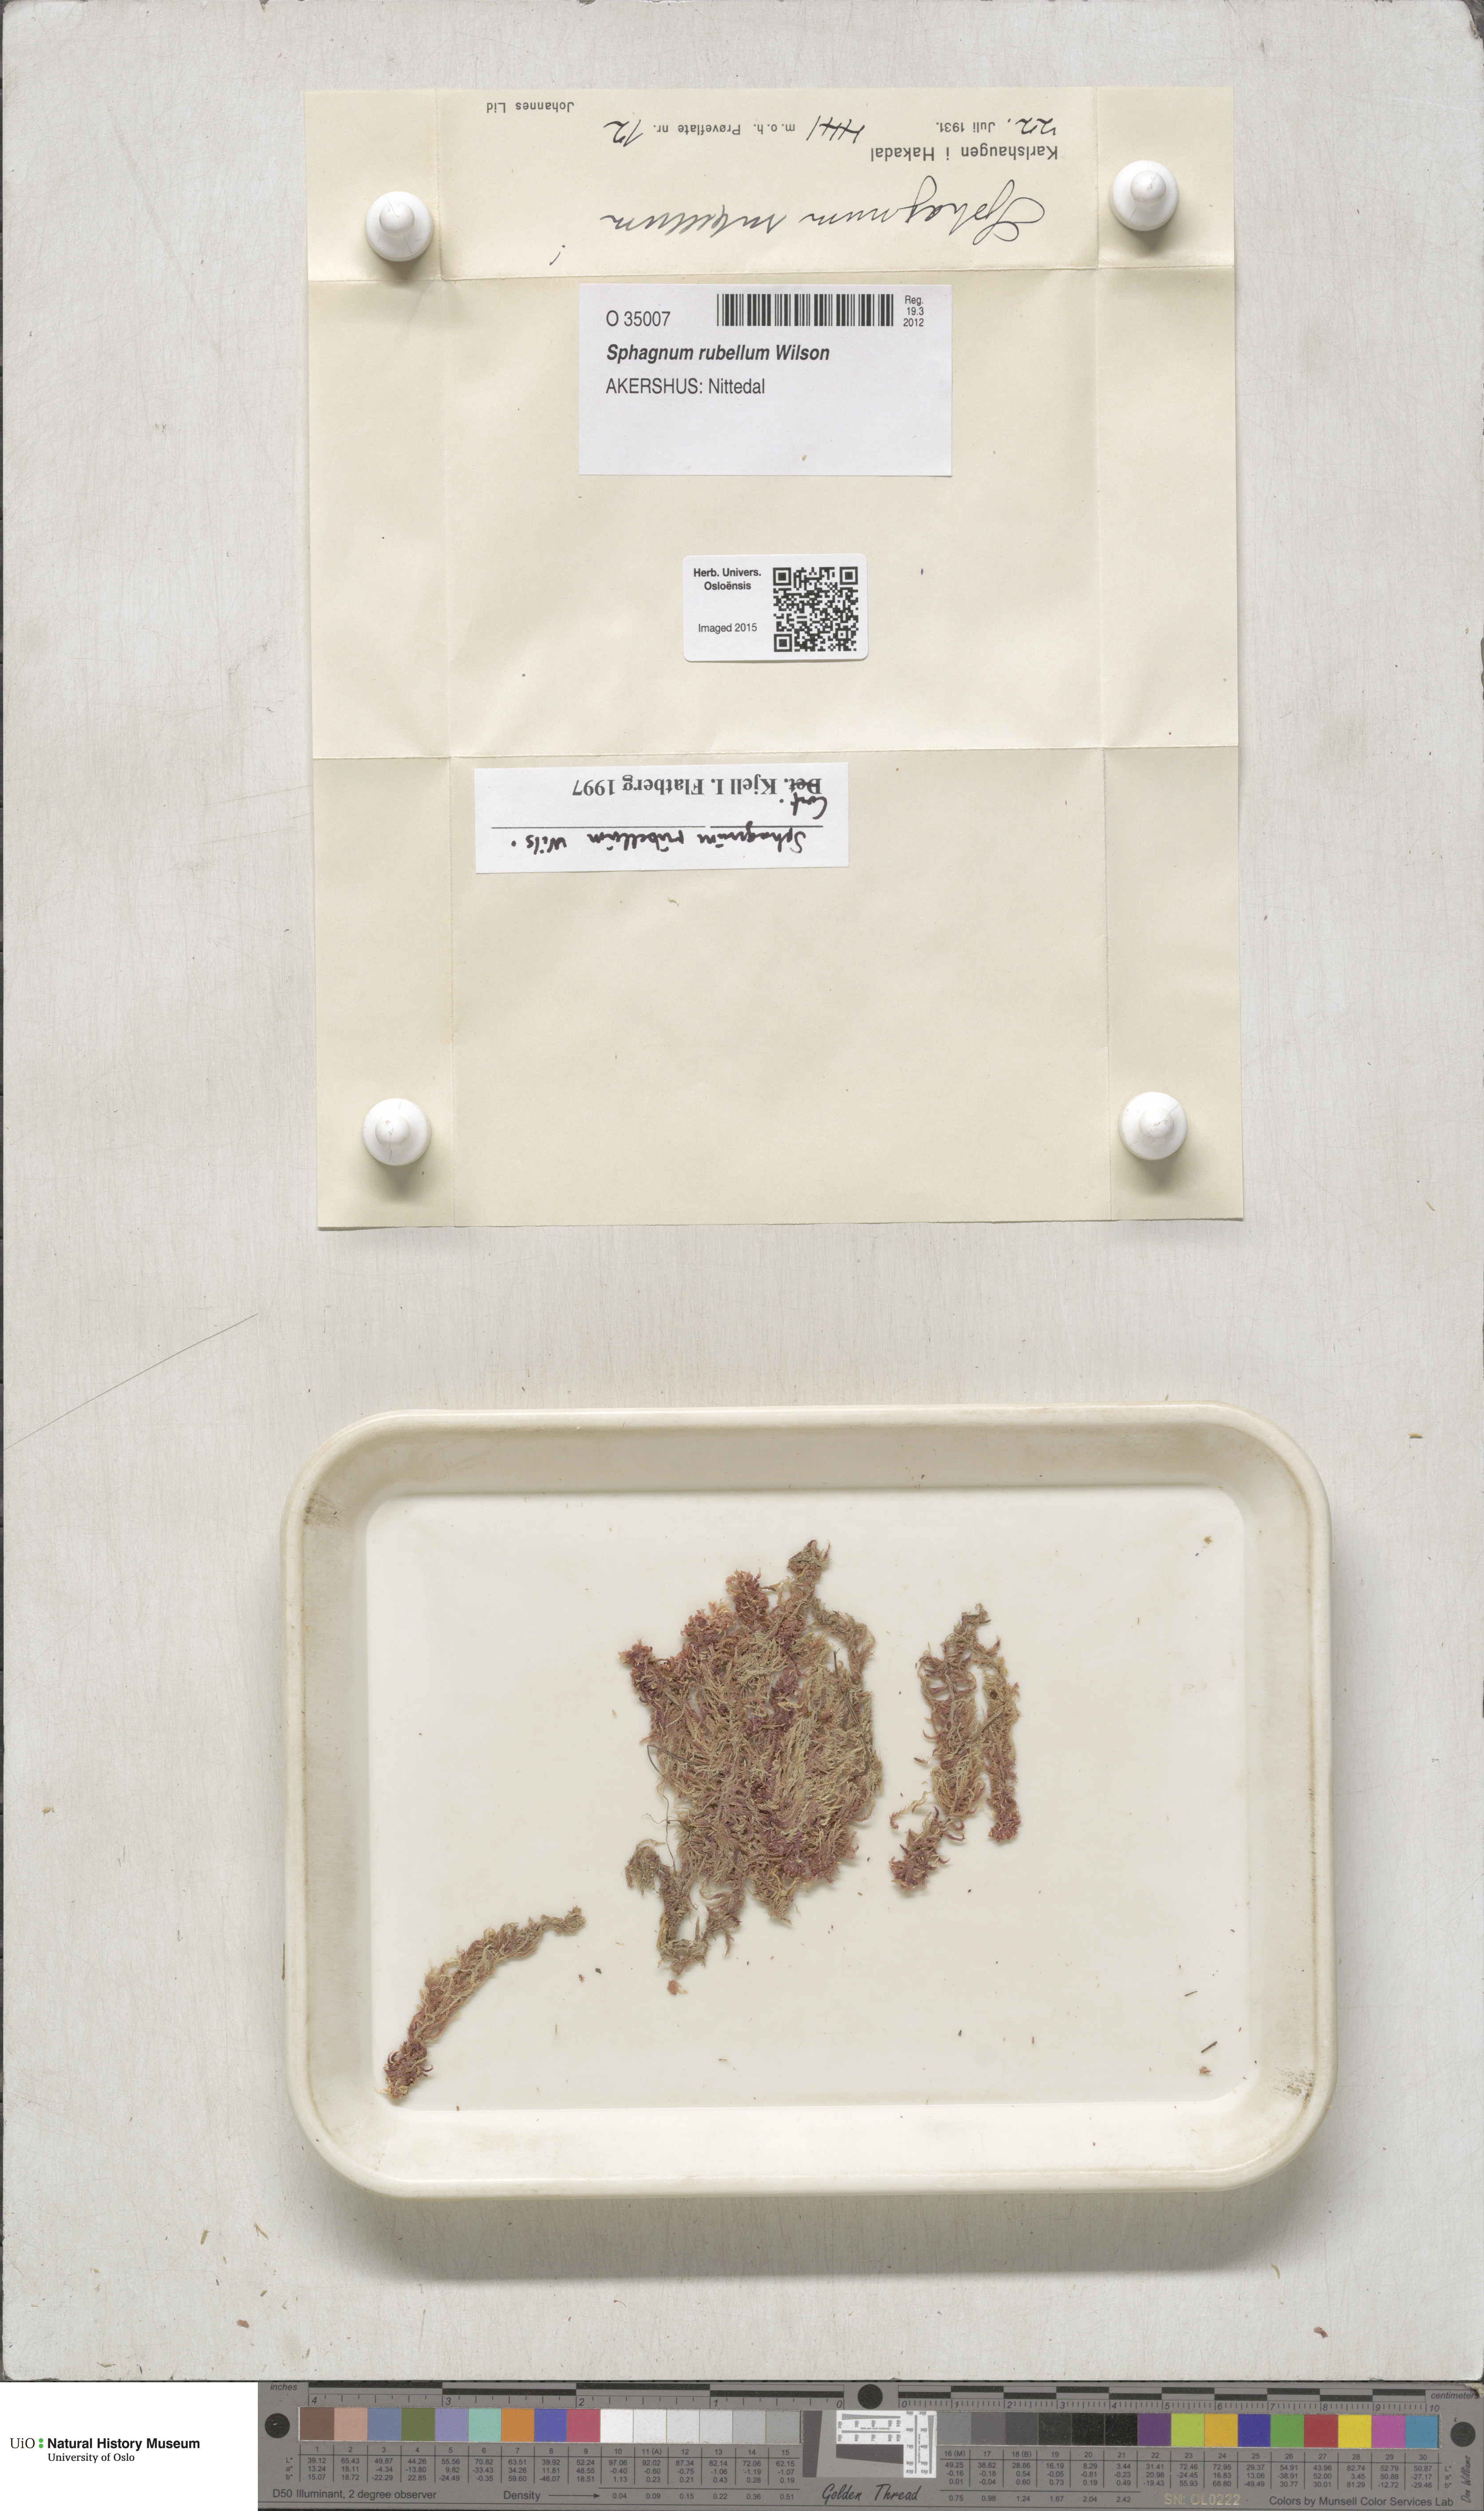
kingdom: Plantae
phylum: Bryophyta
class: Sphagnopsida
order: Sphagnales
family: Sphagnaceae
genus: Sphagnum
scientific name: Sphagnum rubellum
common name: Red peat moss
